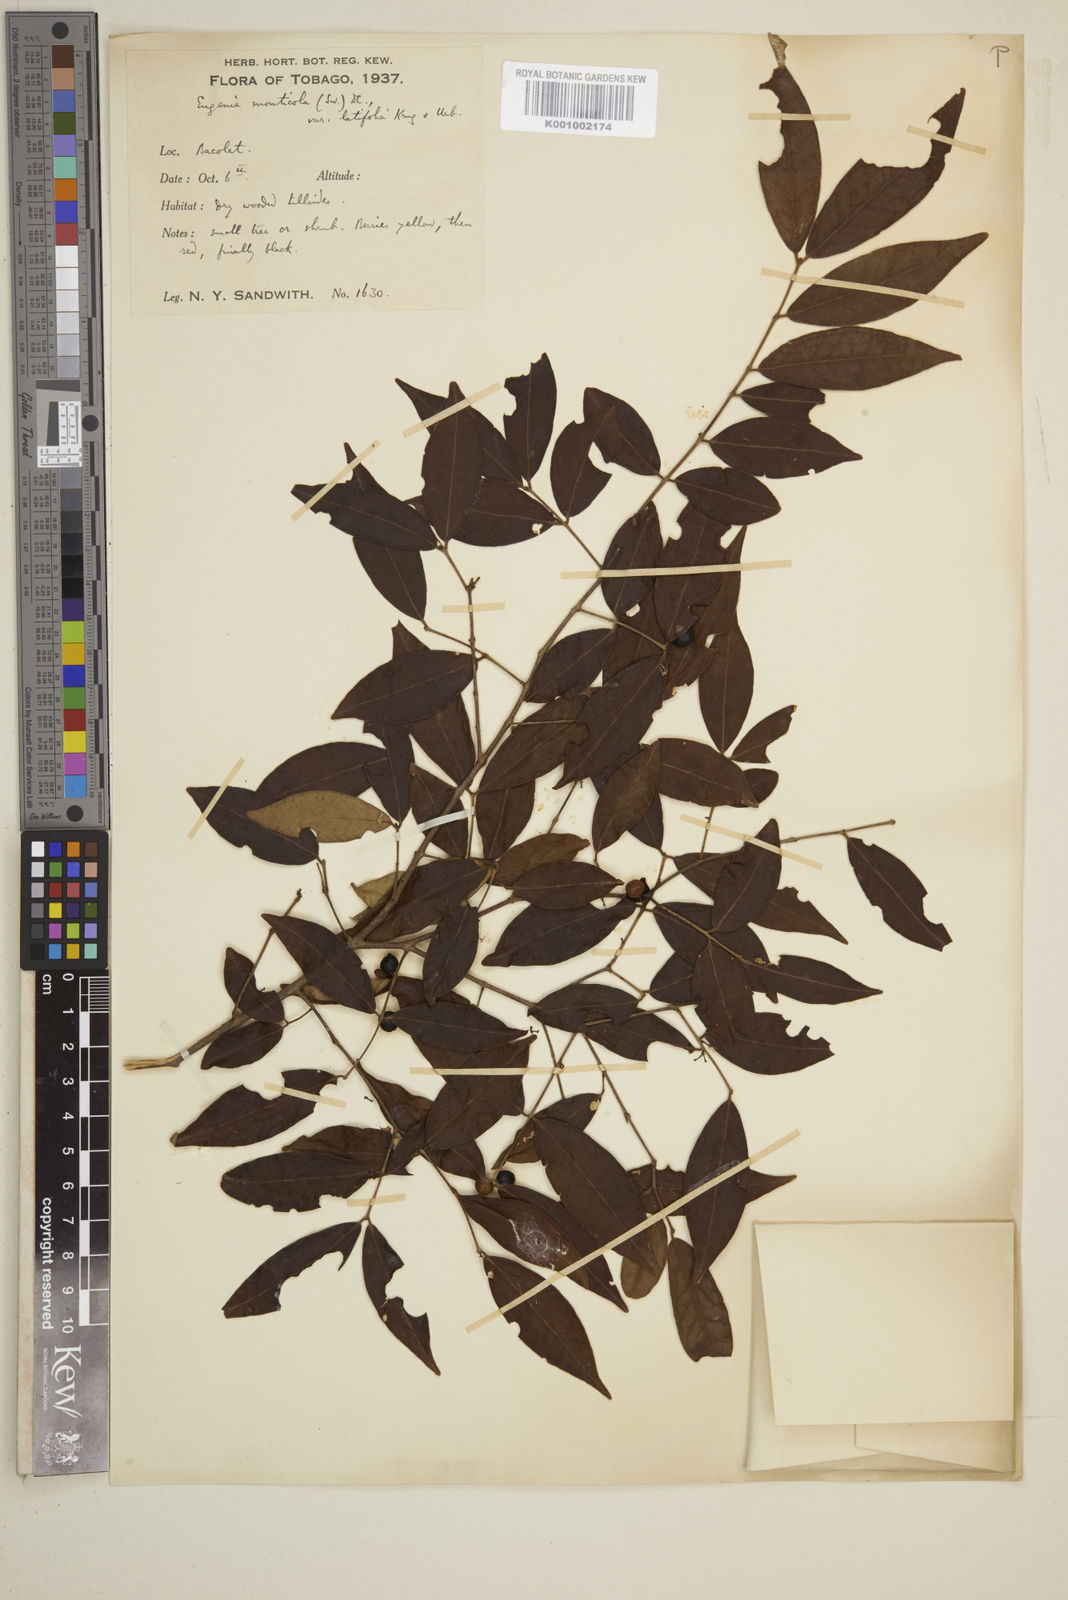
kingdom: Plantae
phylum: Tracheophyta
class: Magnoliopsida
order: Myrtales
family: Myrtaceae
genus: Eugenia
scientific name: Eugenia monticola
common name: Birds berry
